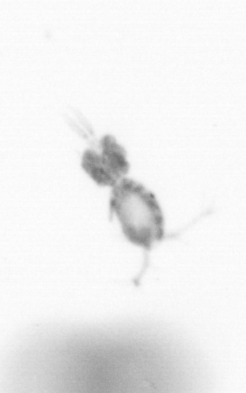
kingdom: Animalia
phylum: Arthropoda
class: Copepoda
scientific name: Copepoda
